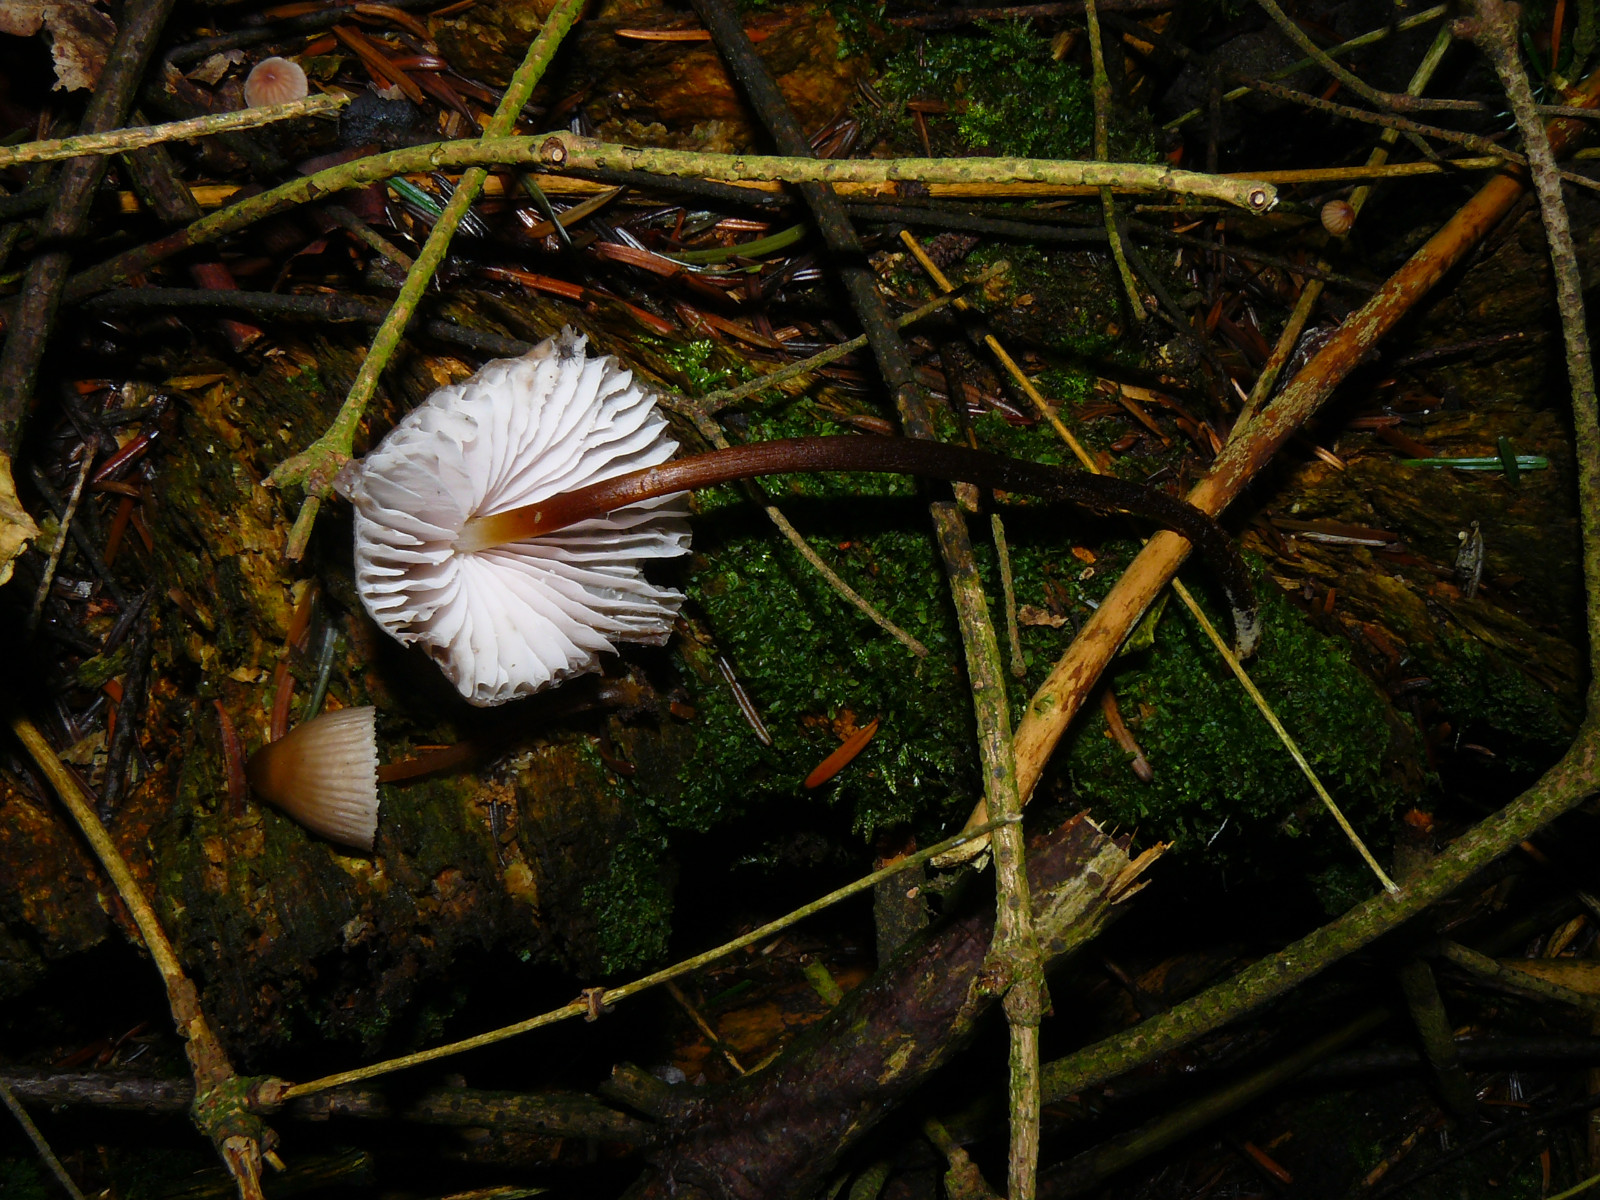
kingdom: Fungi
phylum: Basidiomycota
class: Agaricomycetes
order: Agaricales
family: Mycenaceae
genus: Mycena
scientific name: Mycena inclinata
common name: nikkende huesvamp
